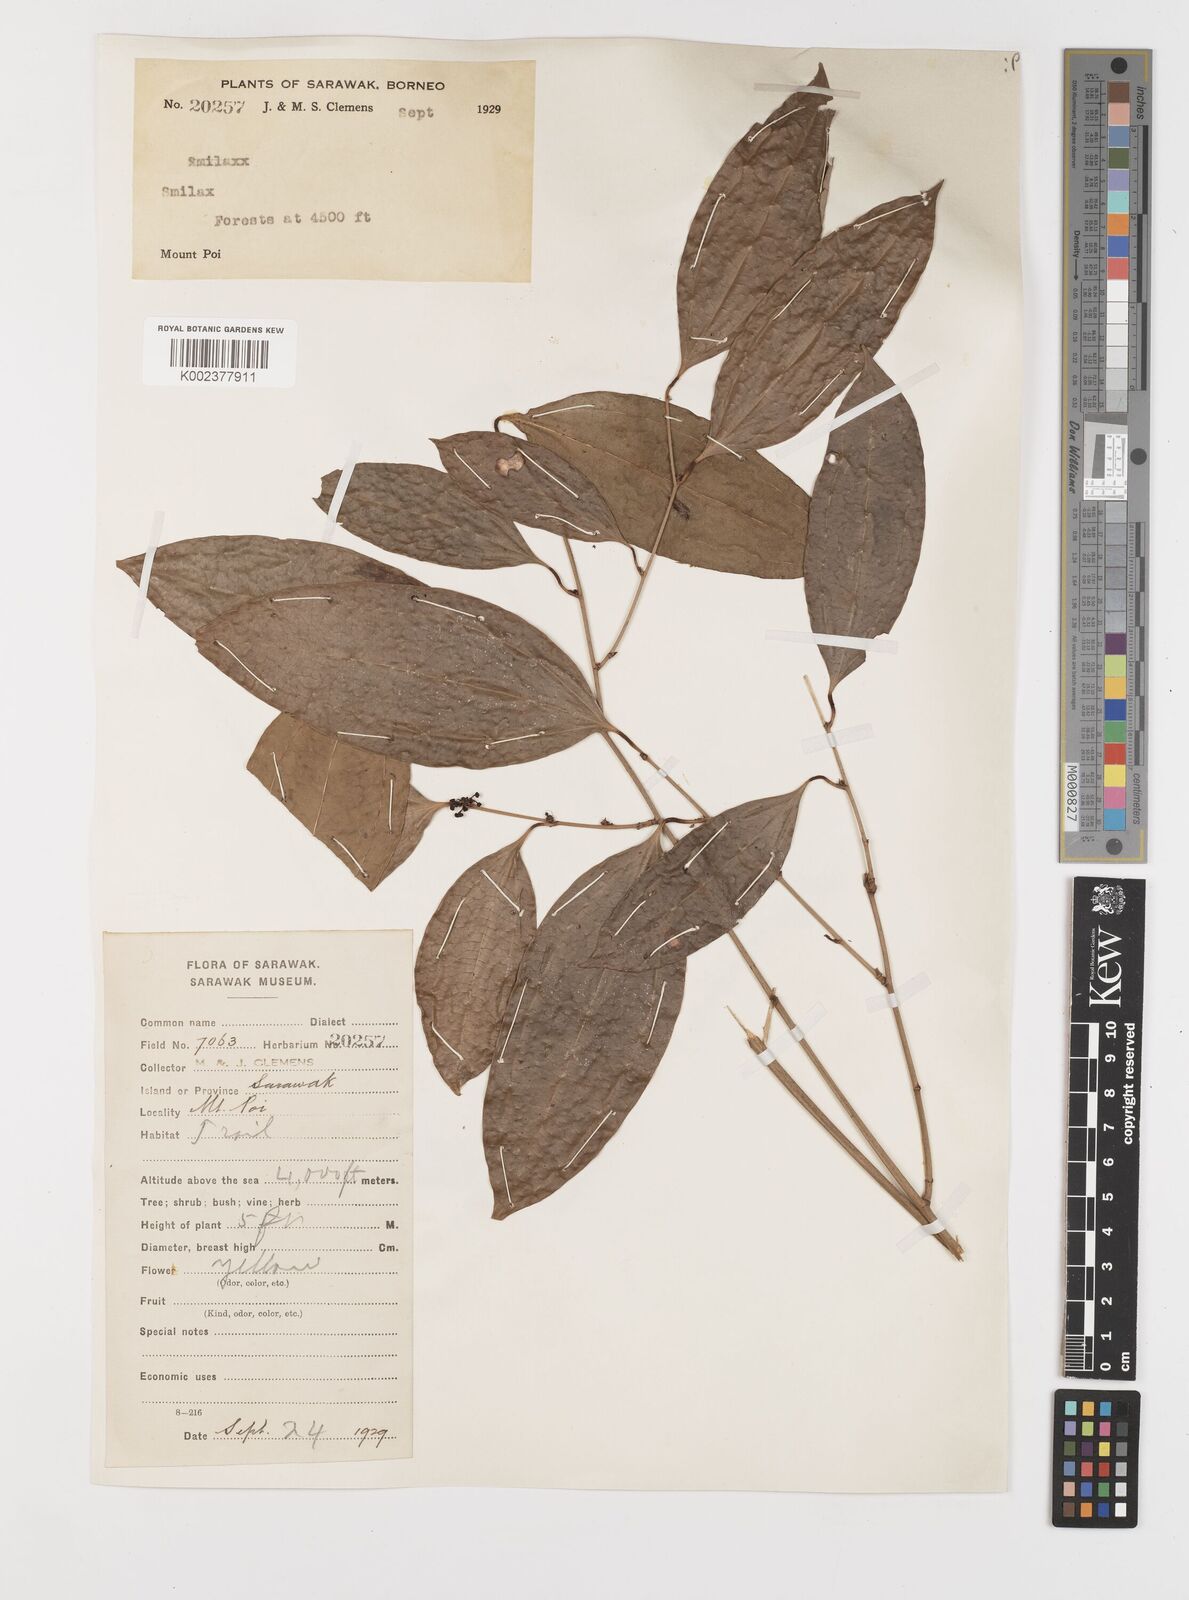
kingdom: Plantae
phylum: Tracheophyta
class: Liliopsida
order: Liliales
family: Smilacaceae
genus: Smilax
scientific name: Smilax
